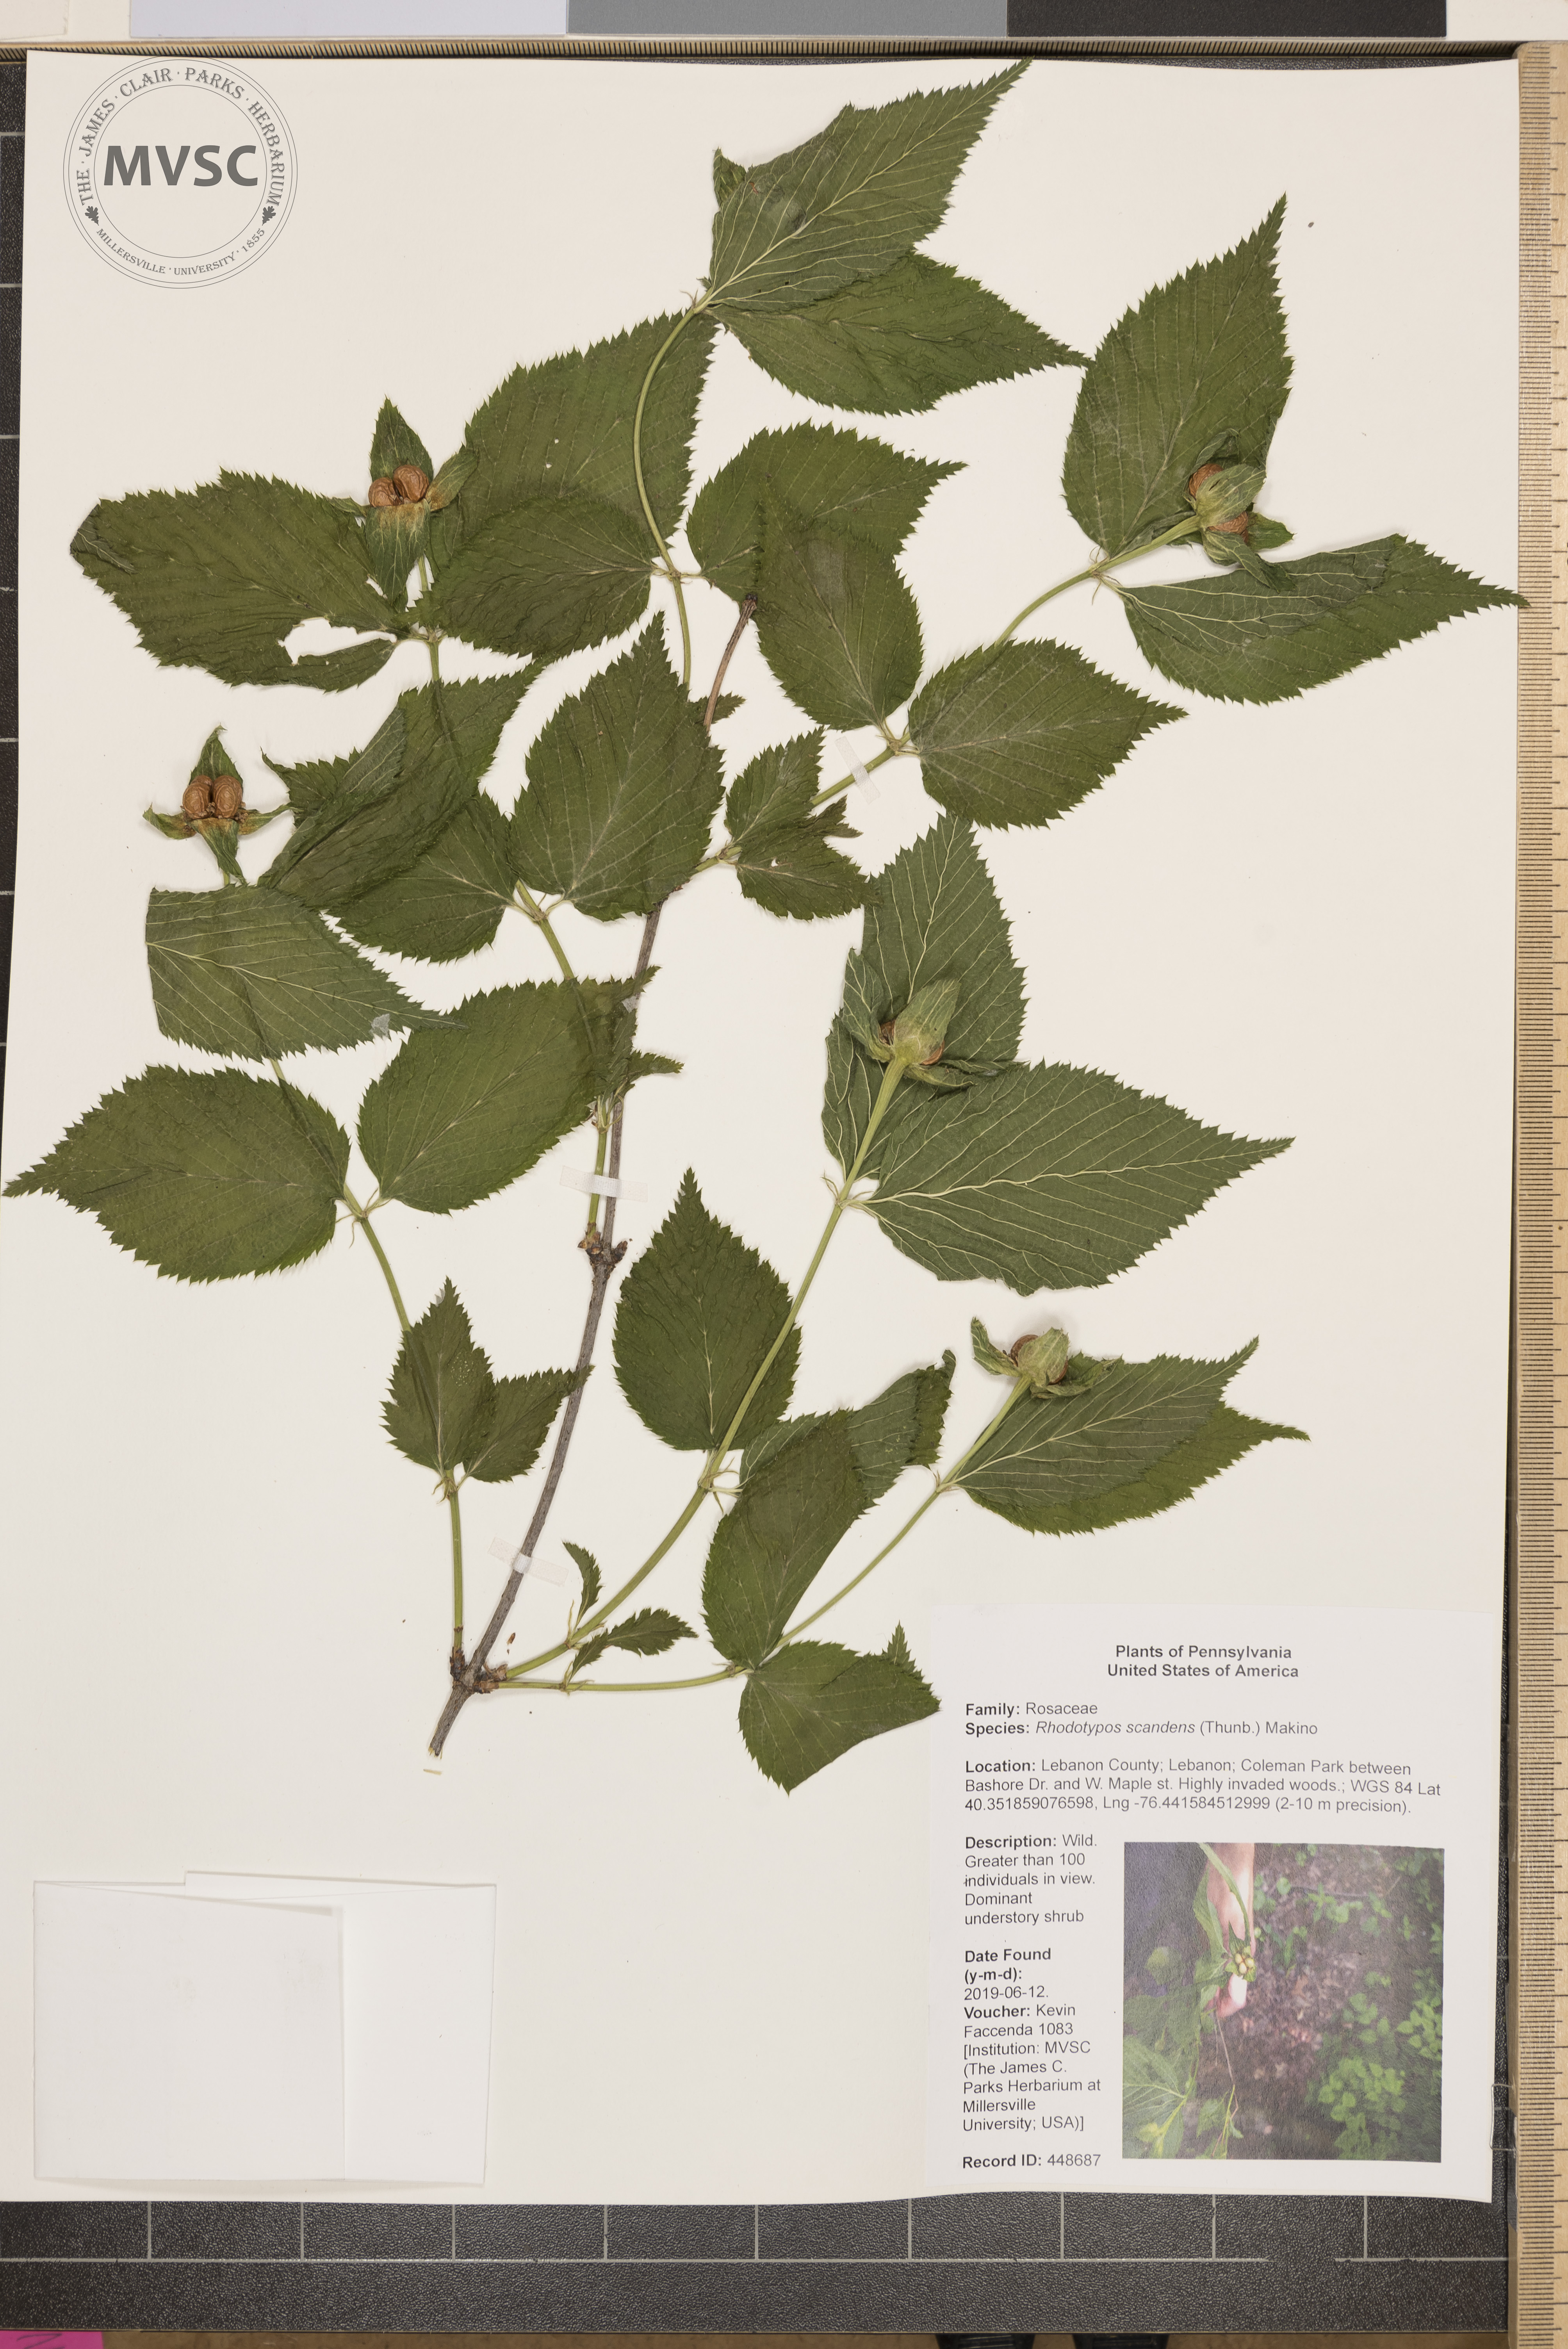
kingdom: Plantae
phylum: Tracheophyta
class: Magnoliopsida
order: Rosales
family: Rosaceae
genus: Rhodotypos
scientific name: Rhodotypos scandens
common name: Jetbead
